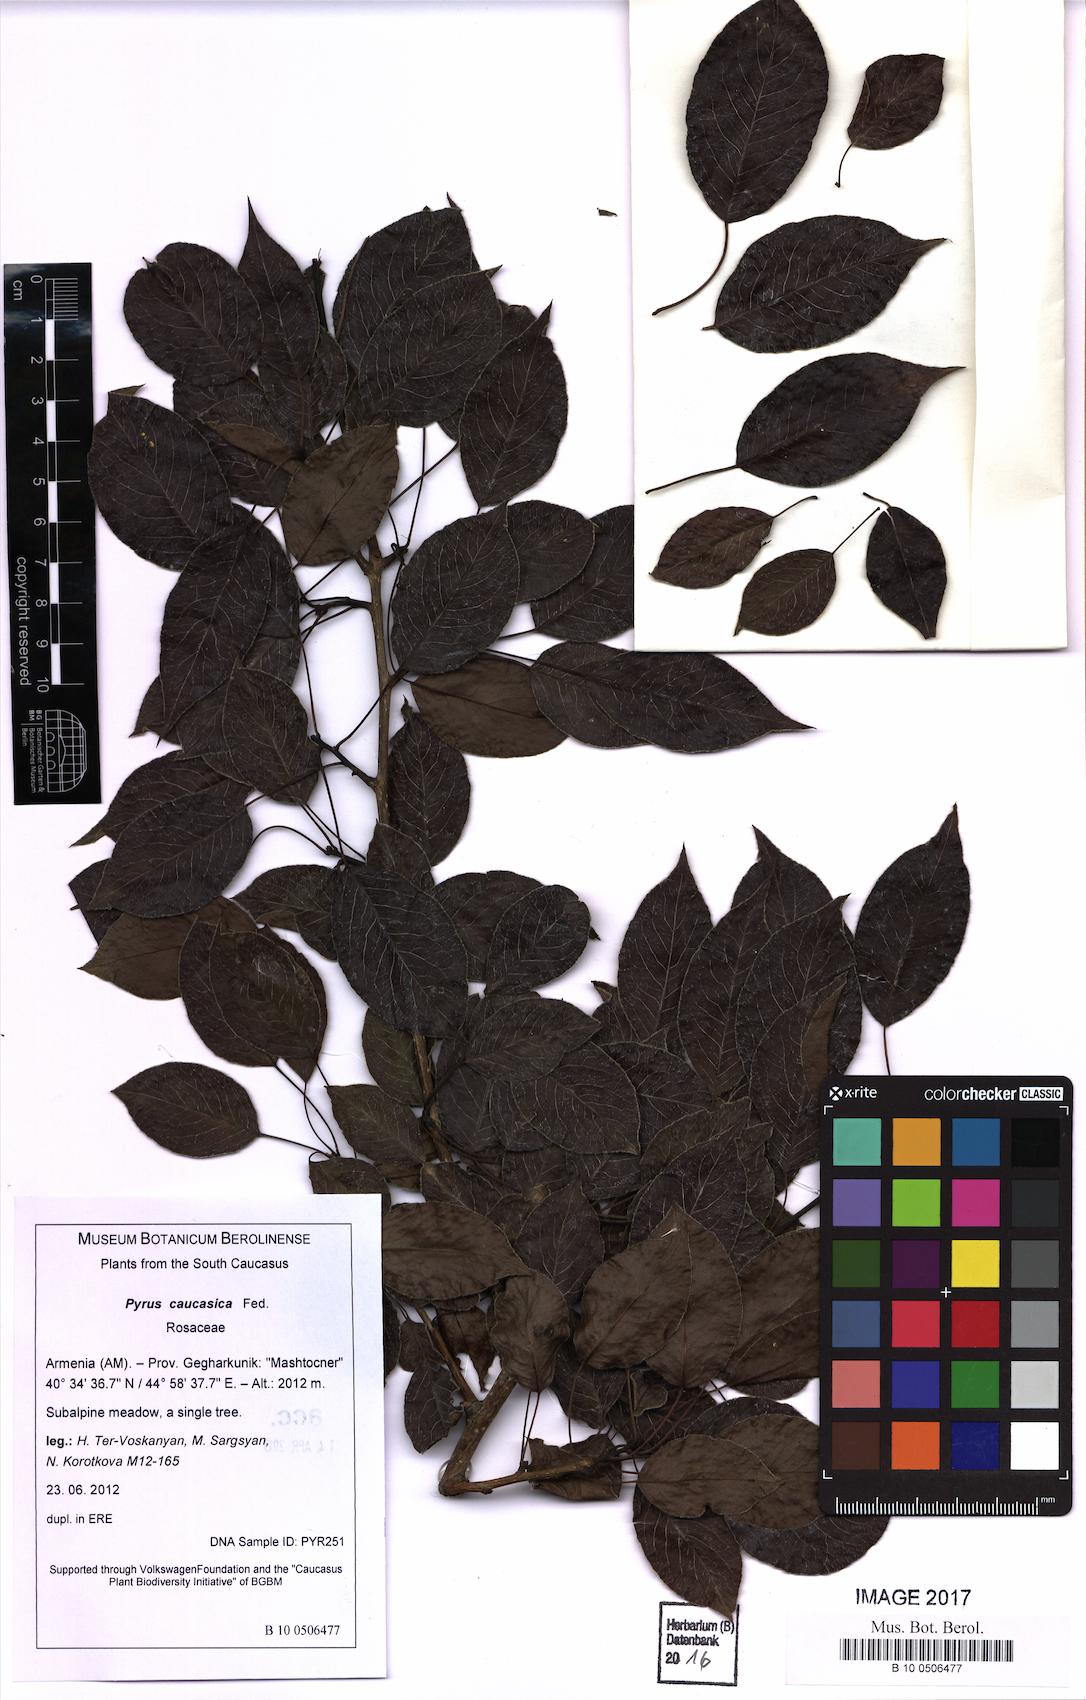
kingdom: Plantae
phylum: Tracheophyta
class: Magnoliopsida
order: Rosales
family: Rosaceae
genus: Pyrus
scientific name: Pyrus communis
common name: Pear
